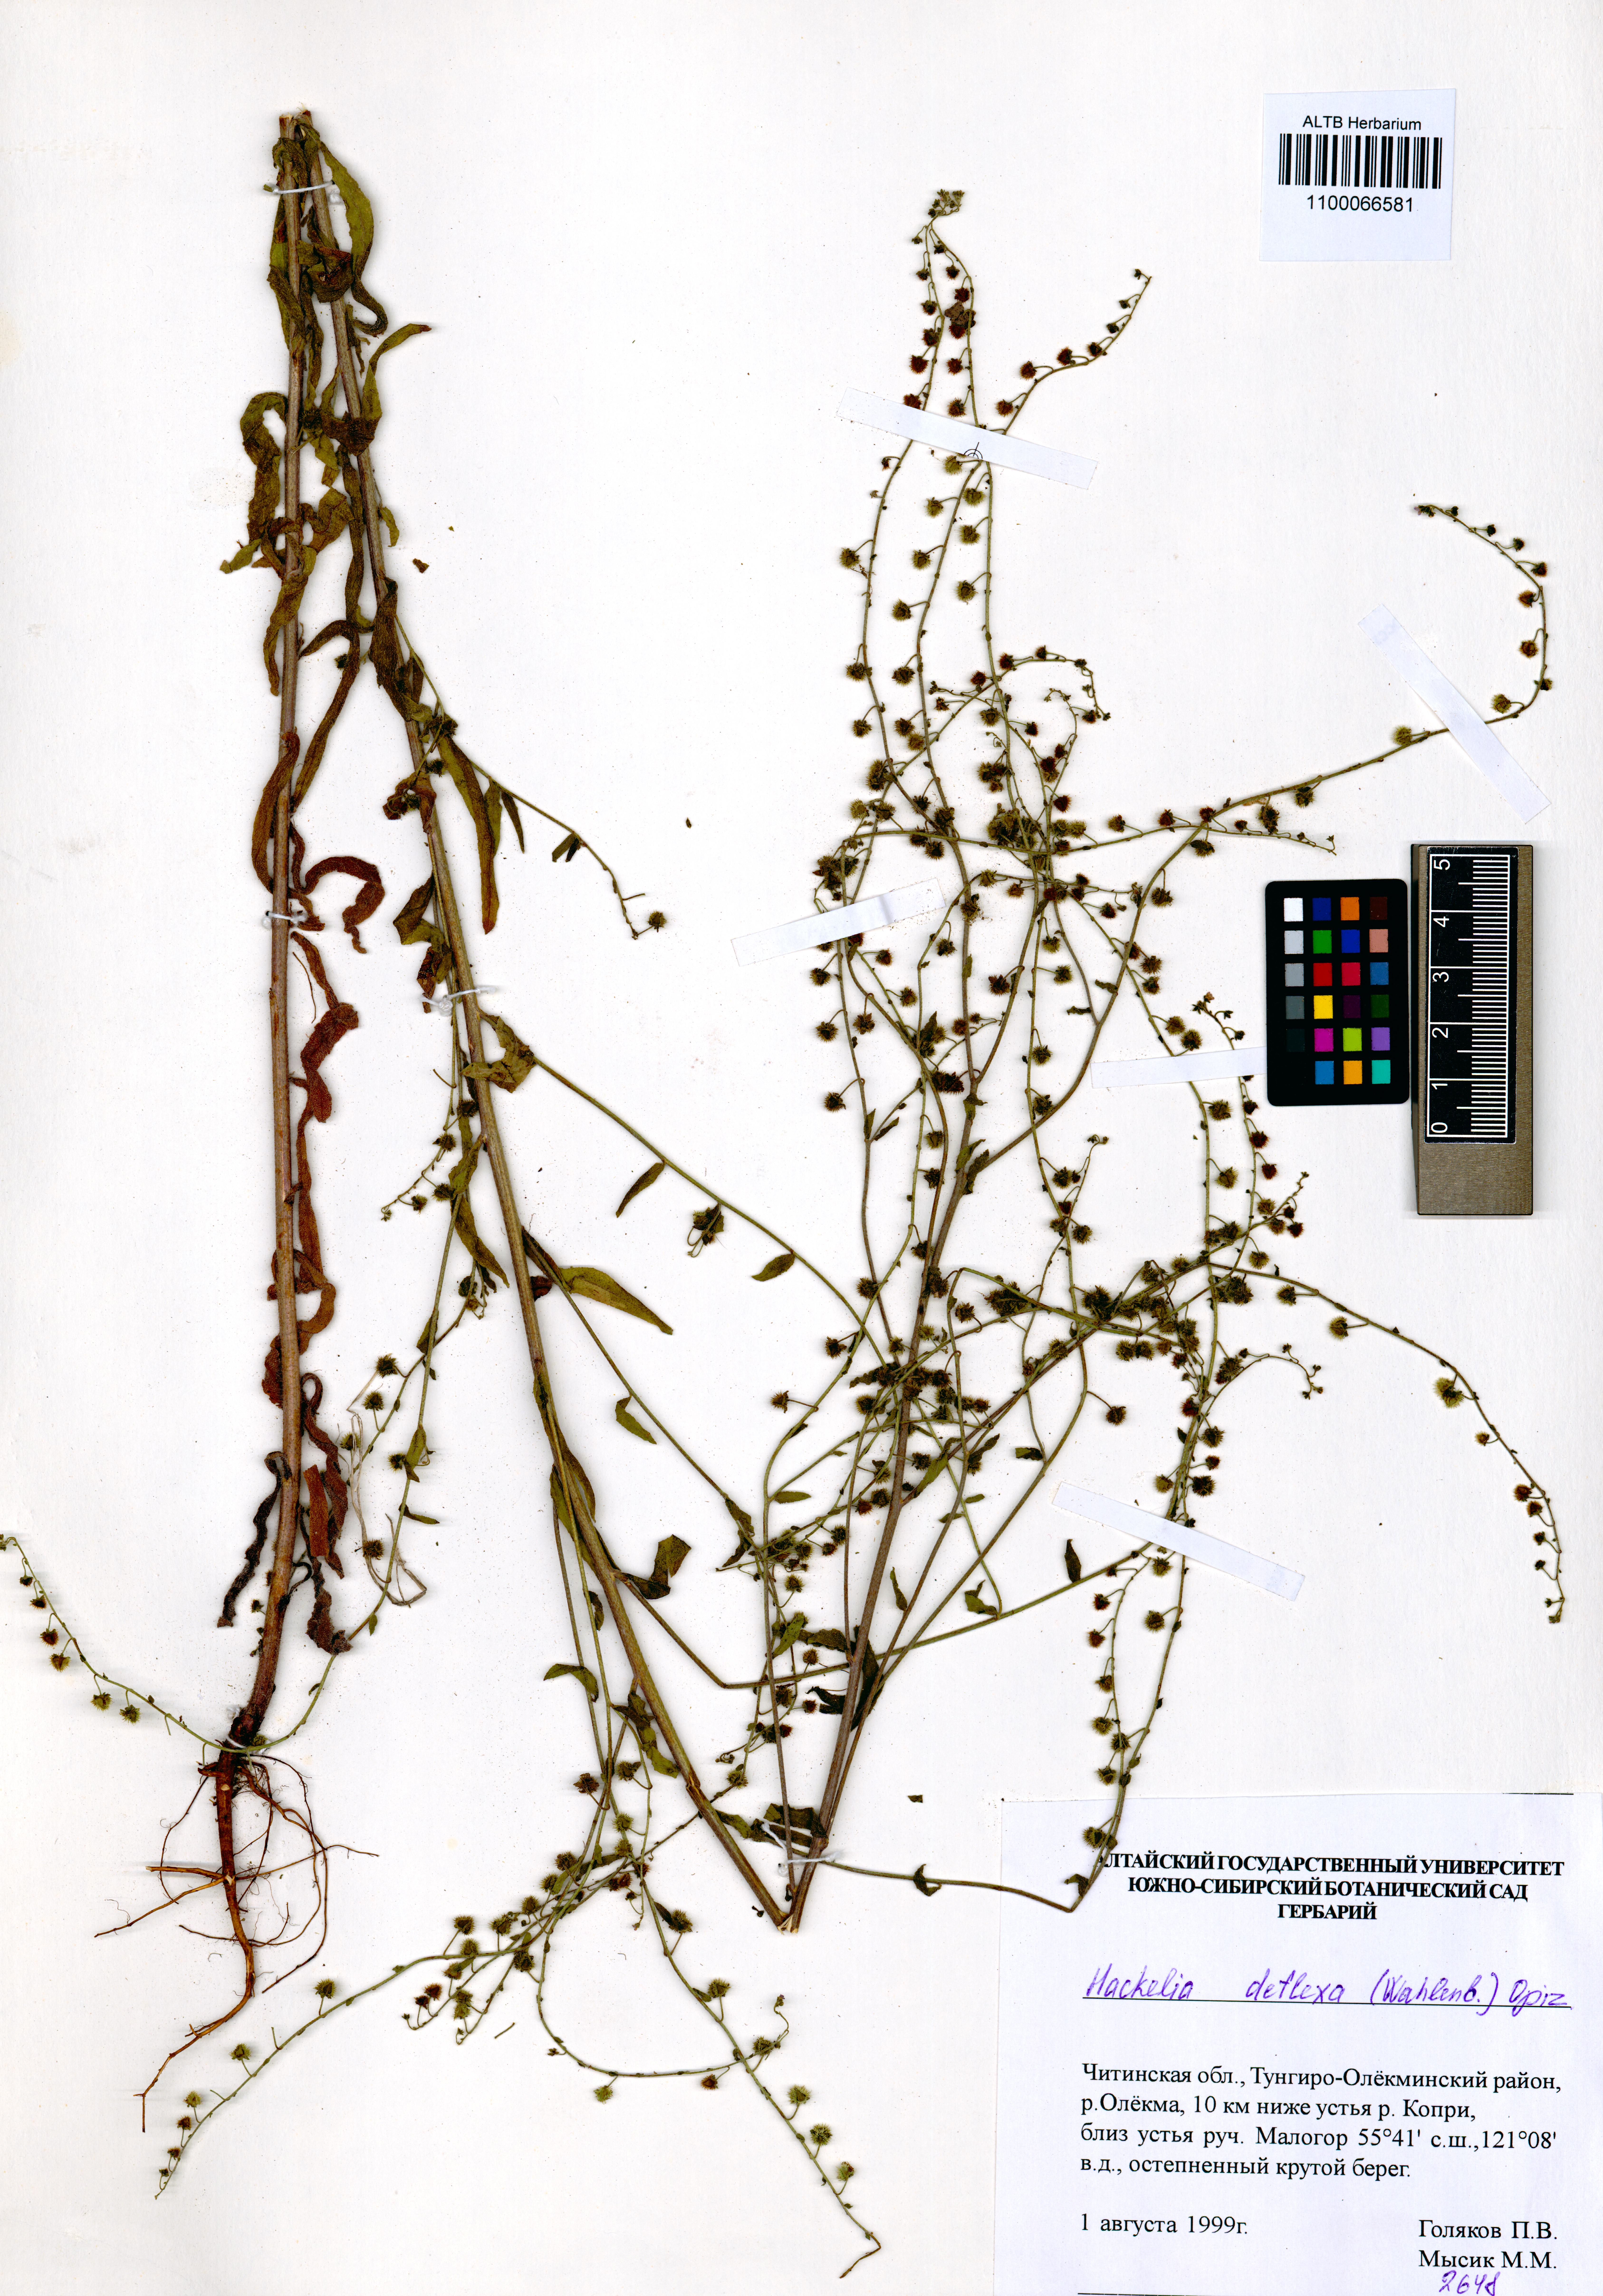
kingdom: Plantae
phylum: Tracheophyta
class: Magnoliopsida
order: Boraginales
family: Boraginaceae
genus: Hackelia
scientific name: Hackelia deflexa
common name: Nodding stickseed
